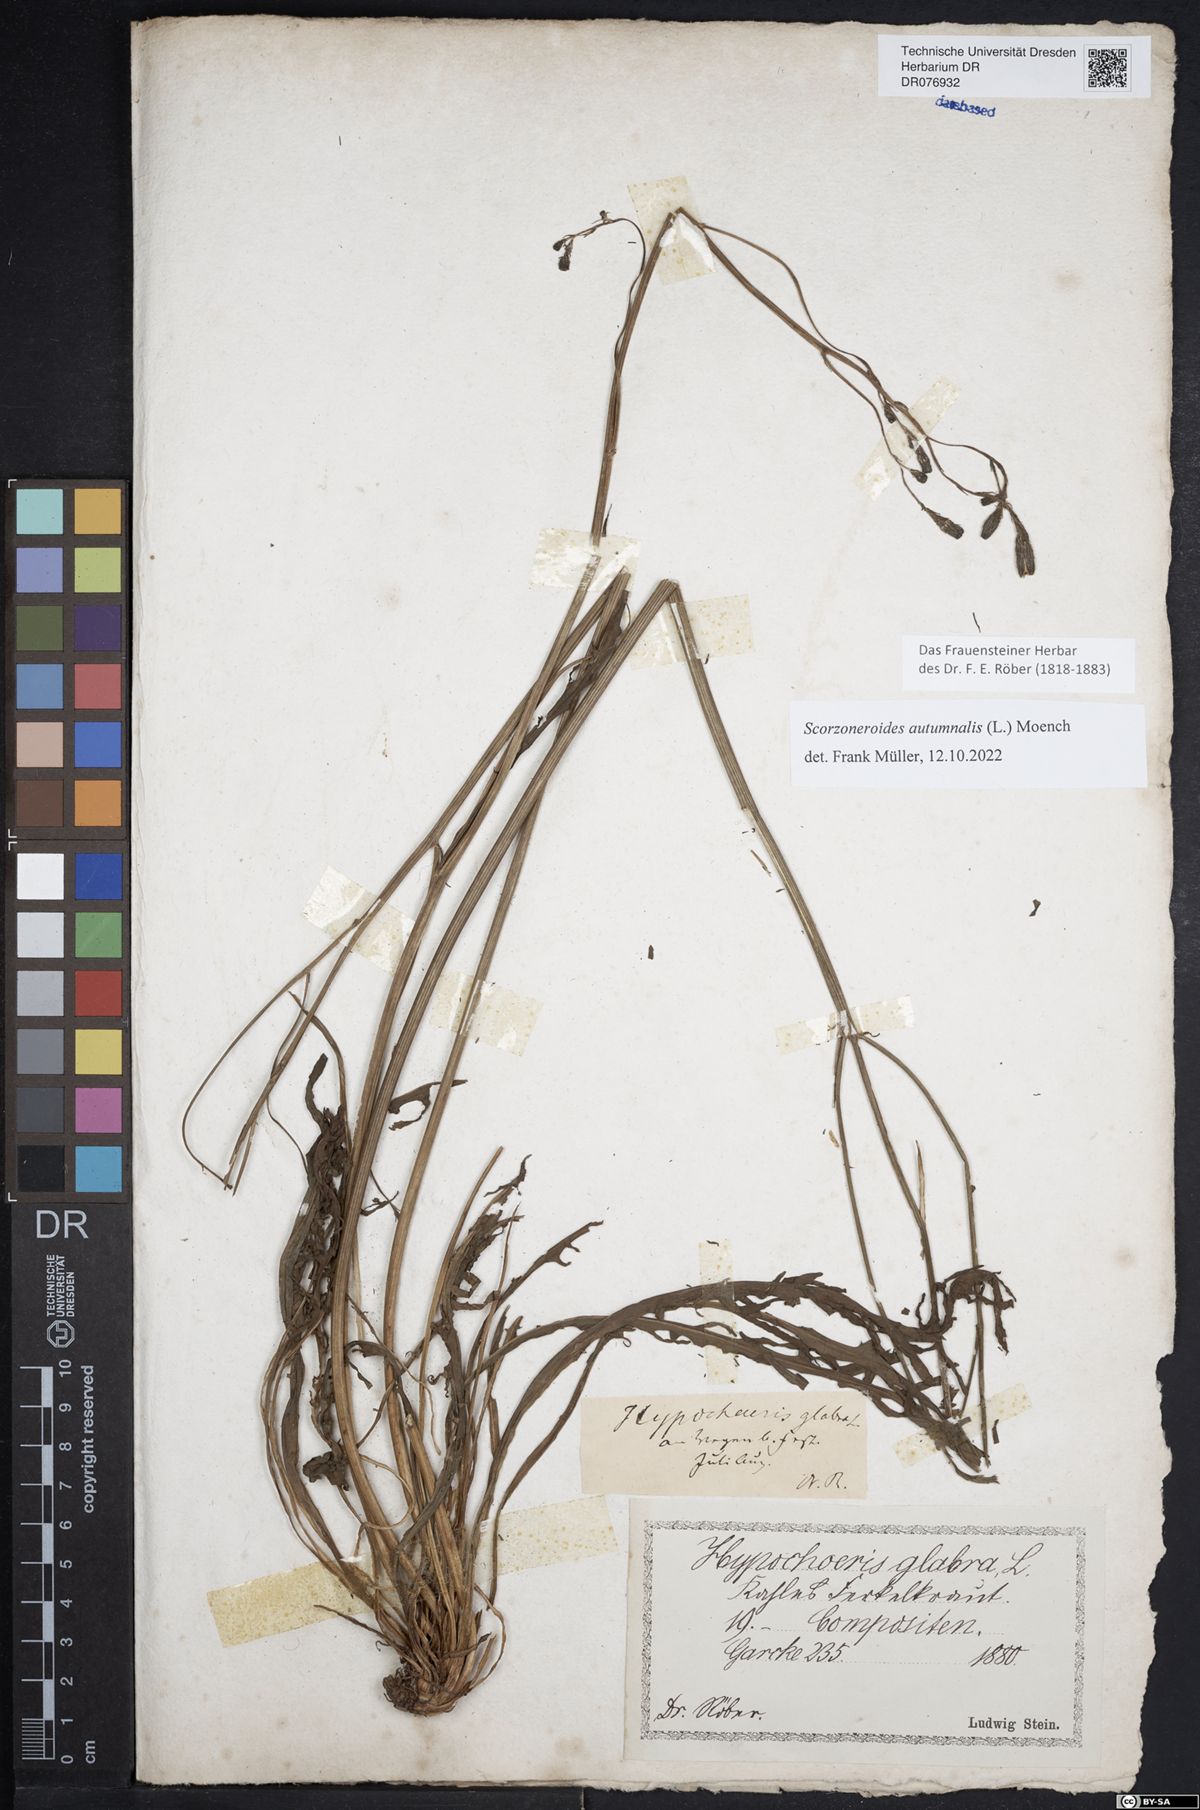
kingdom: Plantae
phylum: Tracheophyta
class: Magnoliopsida
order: Asterales
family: Asteraceae
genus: Hypochaeris
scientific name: Hypochaeris glabra
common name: Smooth catsear
